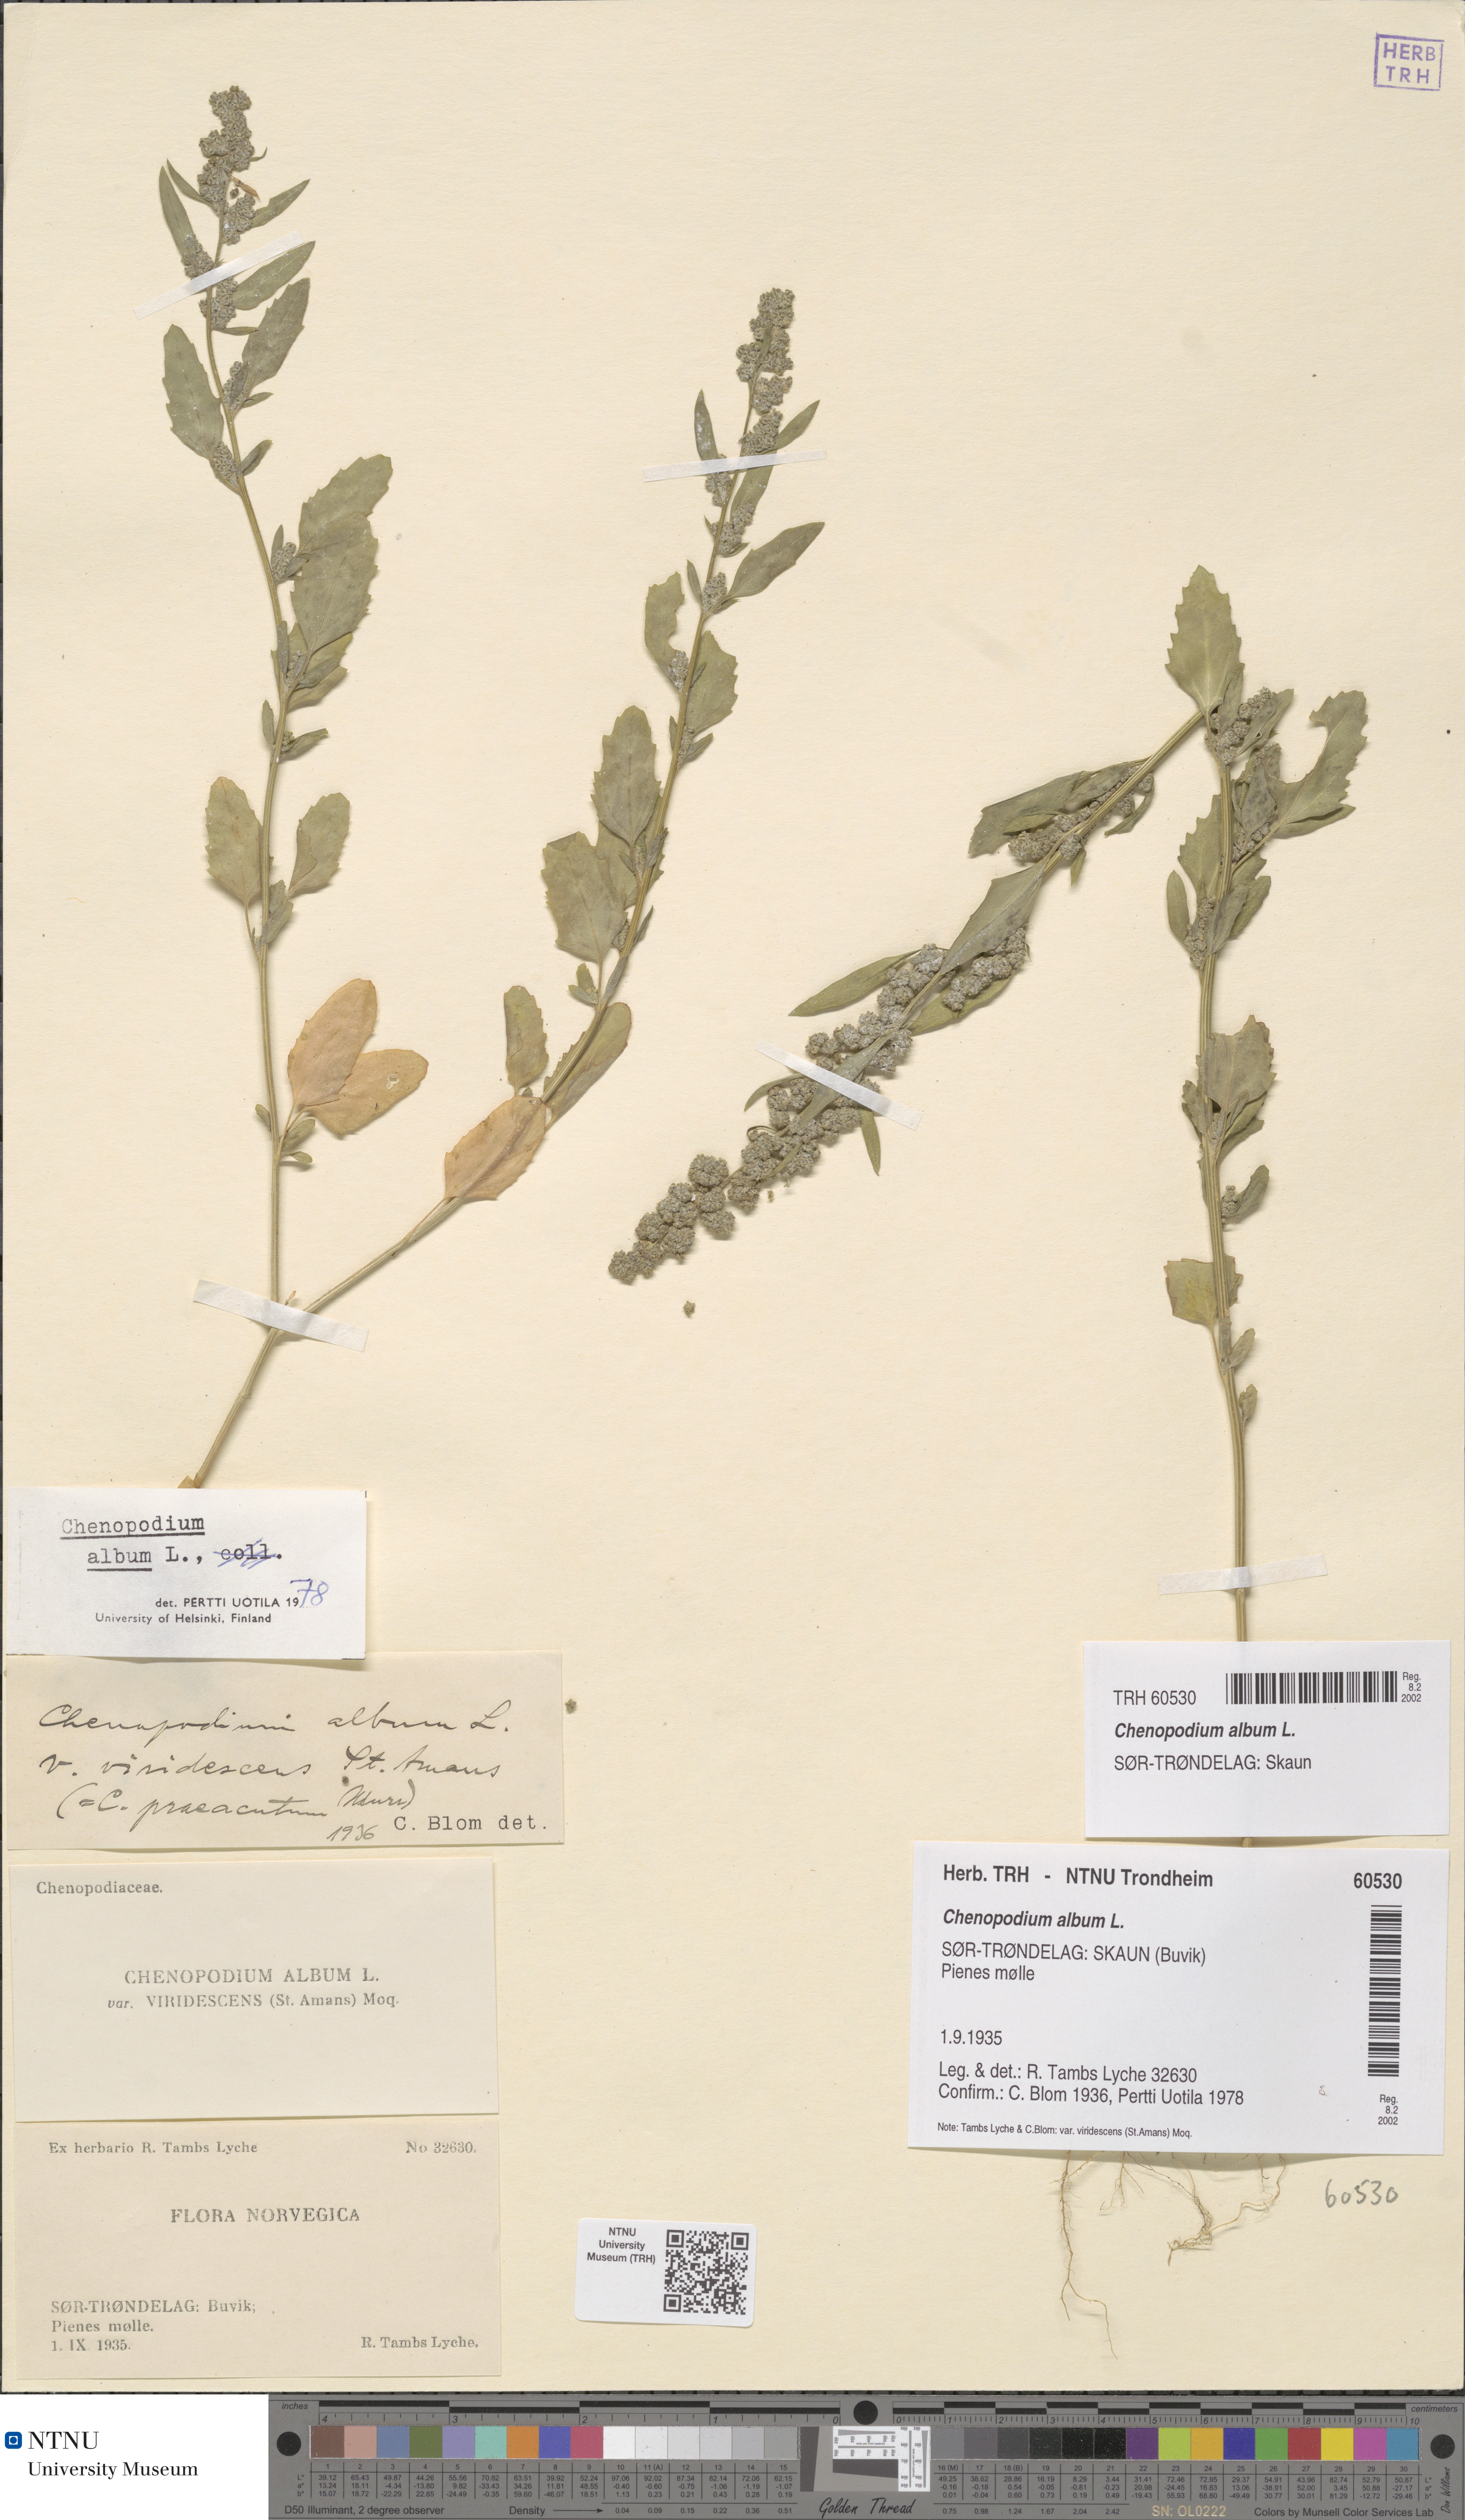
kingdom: Plantae
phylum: Tracheophyta
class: Magnoliopsida
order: Caryophyllales
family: Amaranthaceae
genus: Chenopodium
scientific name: Chenopodium album
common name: Fat-hen
